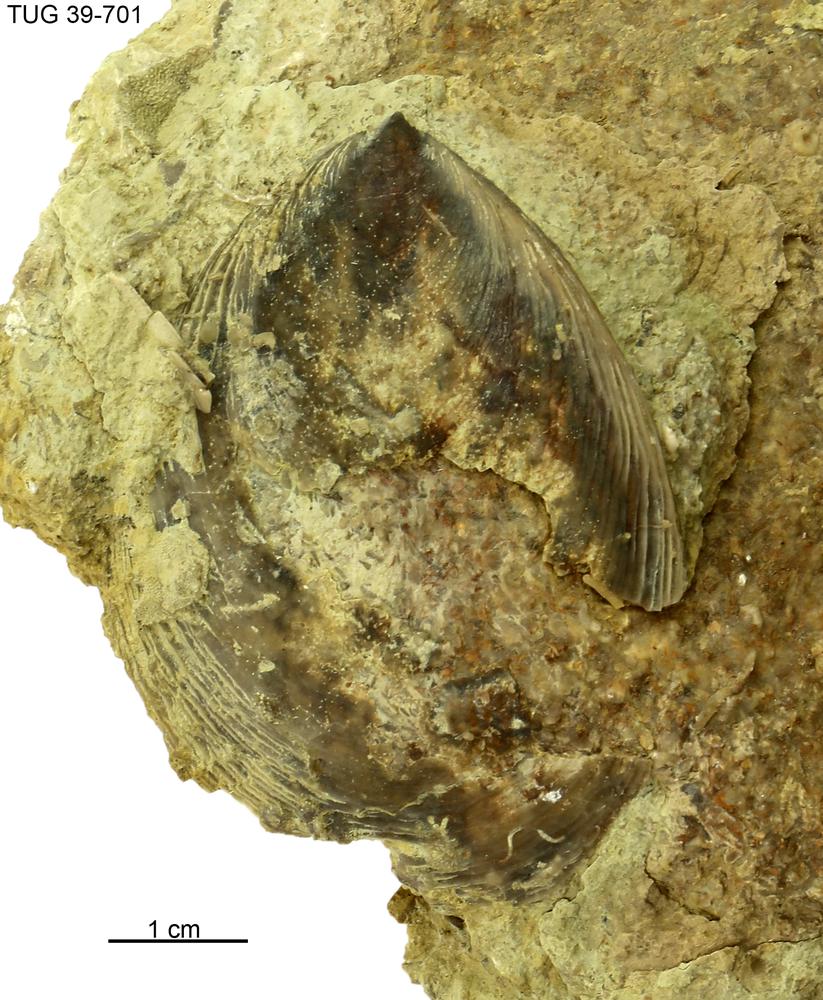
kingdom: Animalia
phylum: Mollusca
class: Monoplacophora
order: Tryblidiida
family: Tryblidiidae
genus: Pilina
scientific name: Pilina
